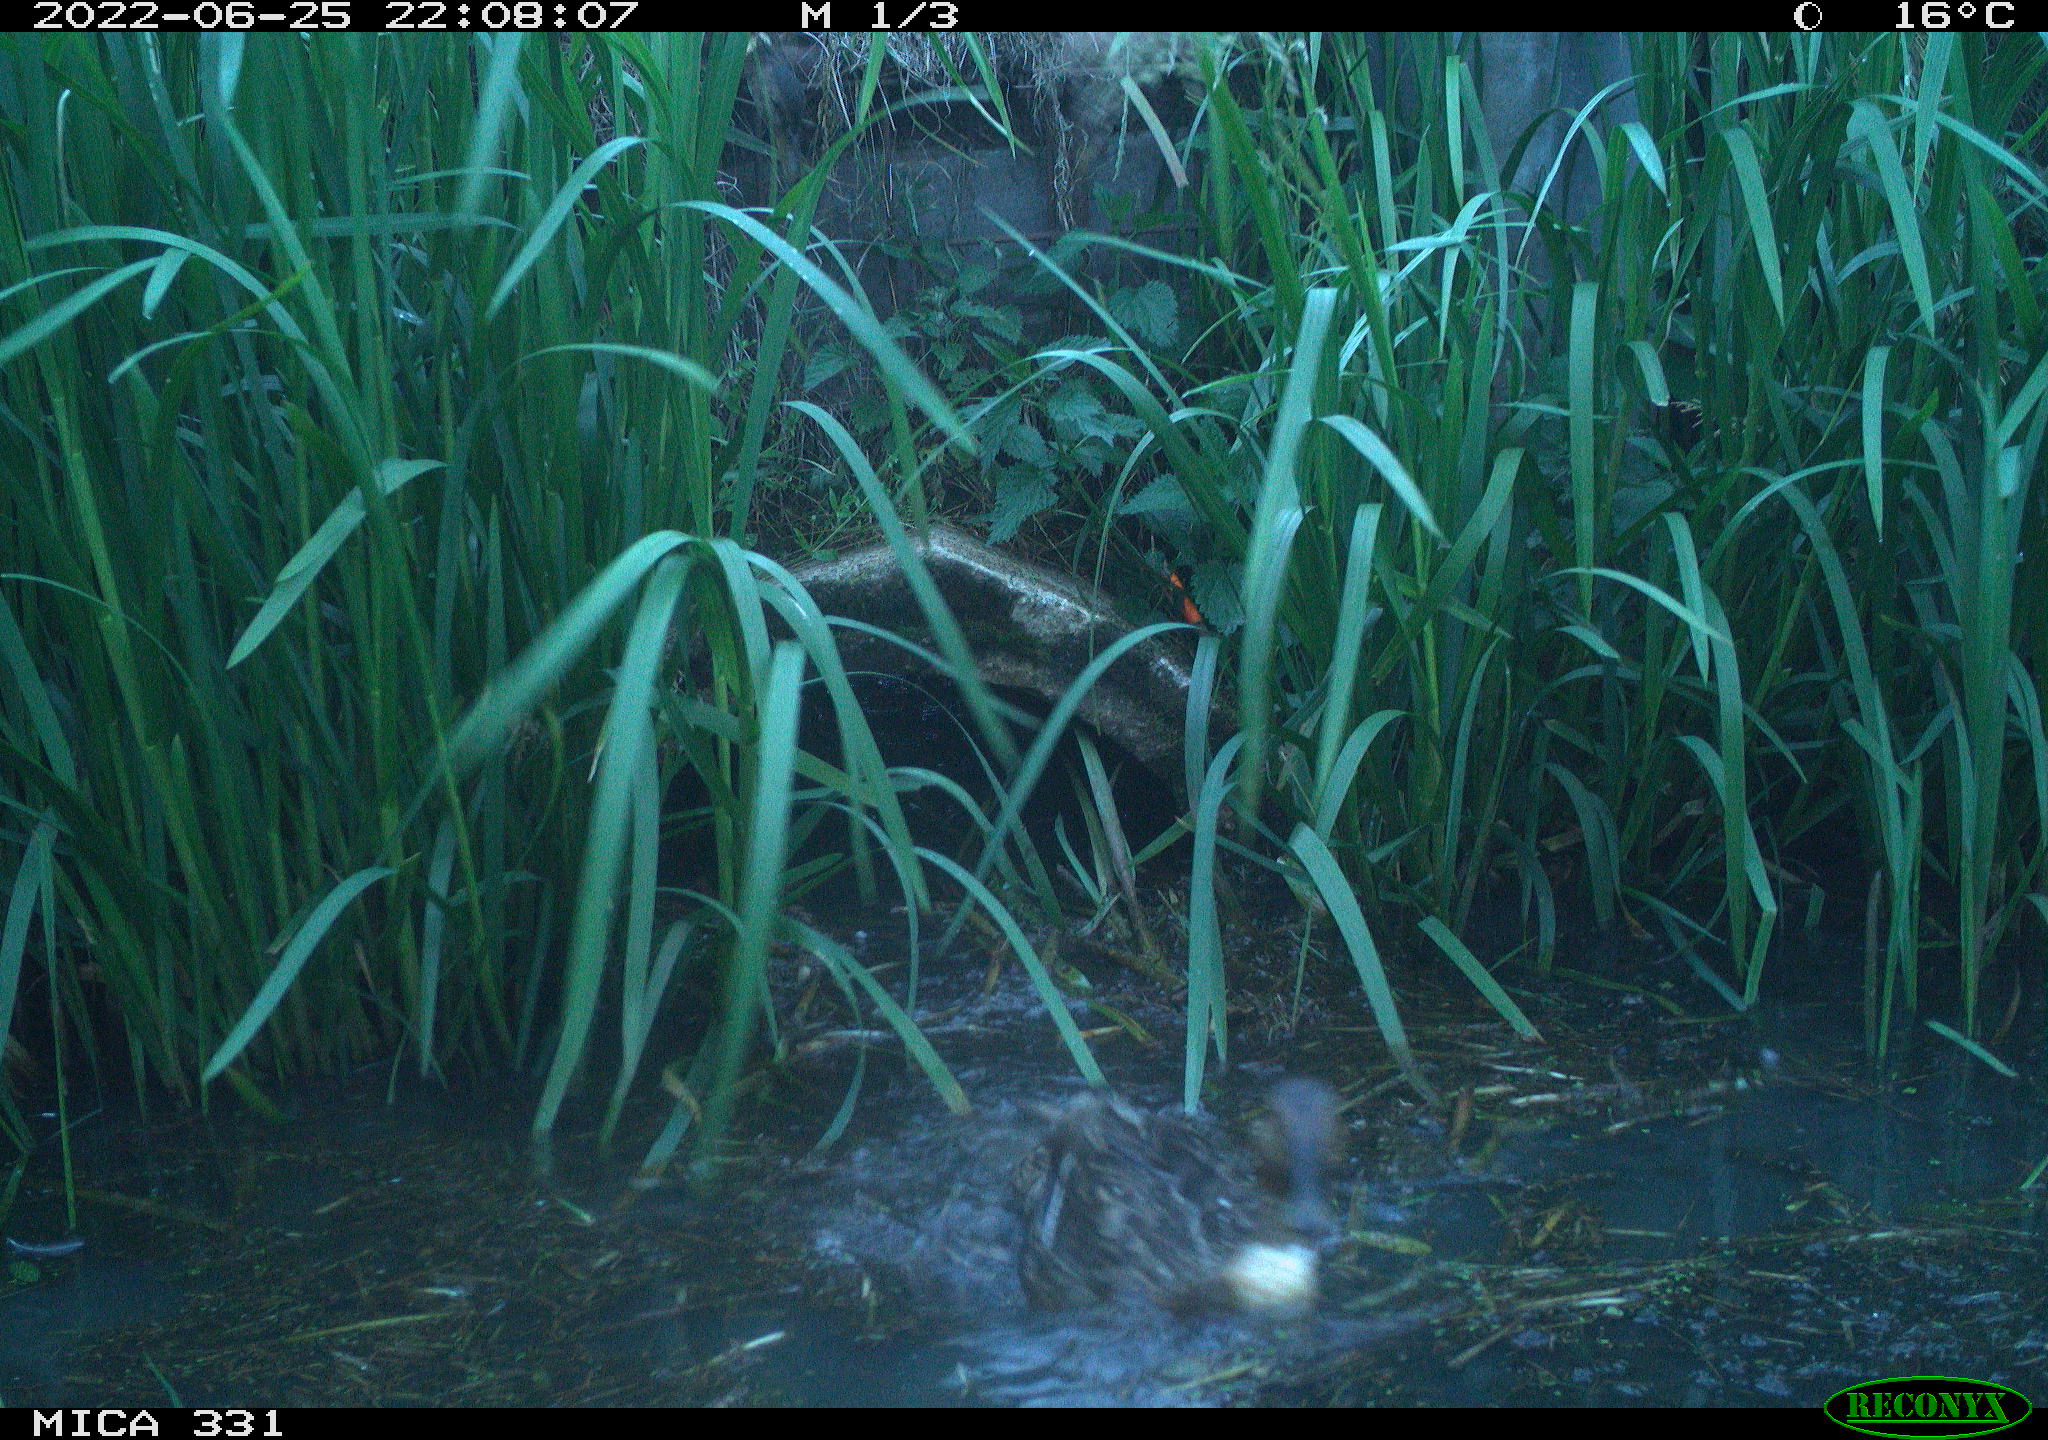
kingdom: Animalia
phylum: Chordata
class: Aves
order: Anseriformes
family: Anatidae
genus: Mareca
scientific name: Mareca strepera
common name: Gadwall
